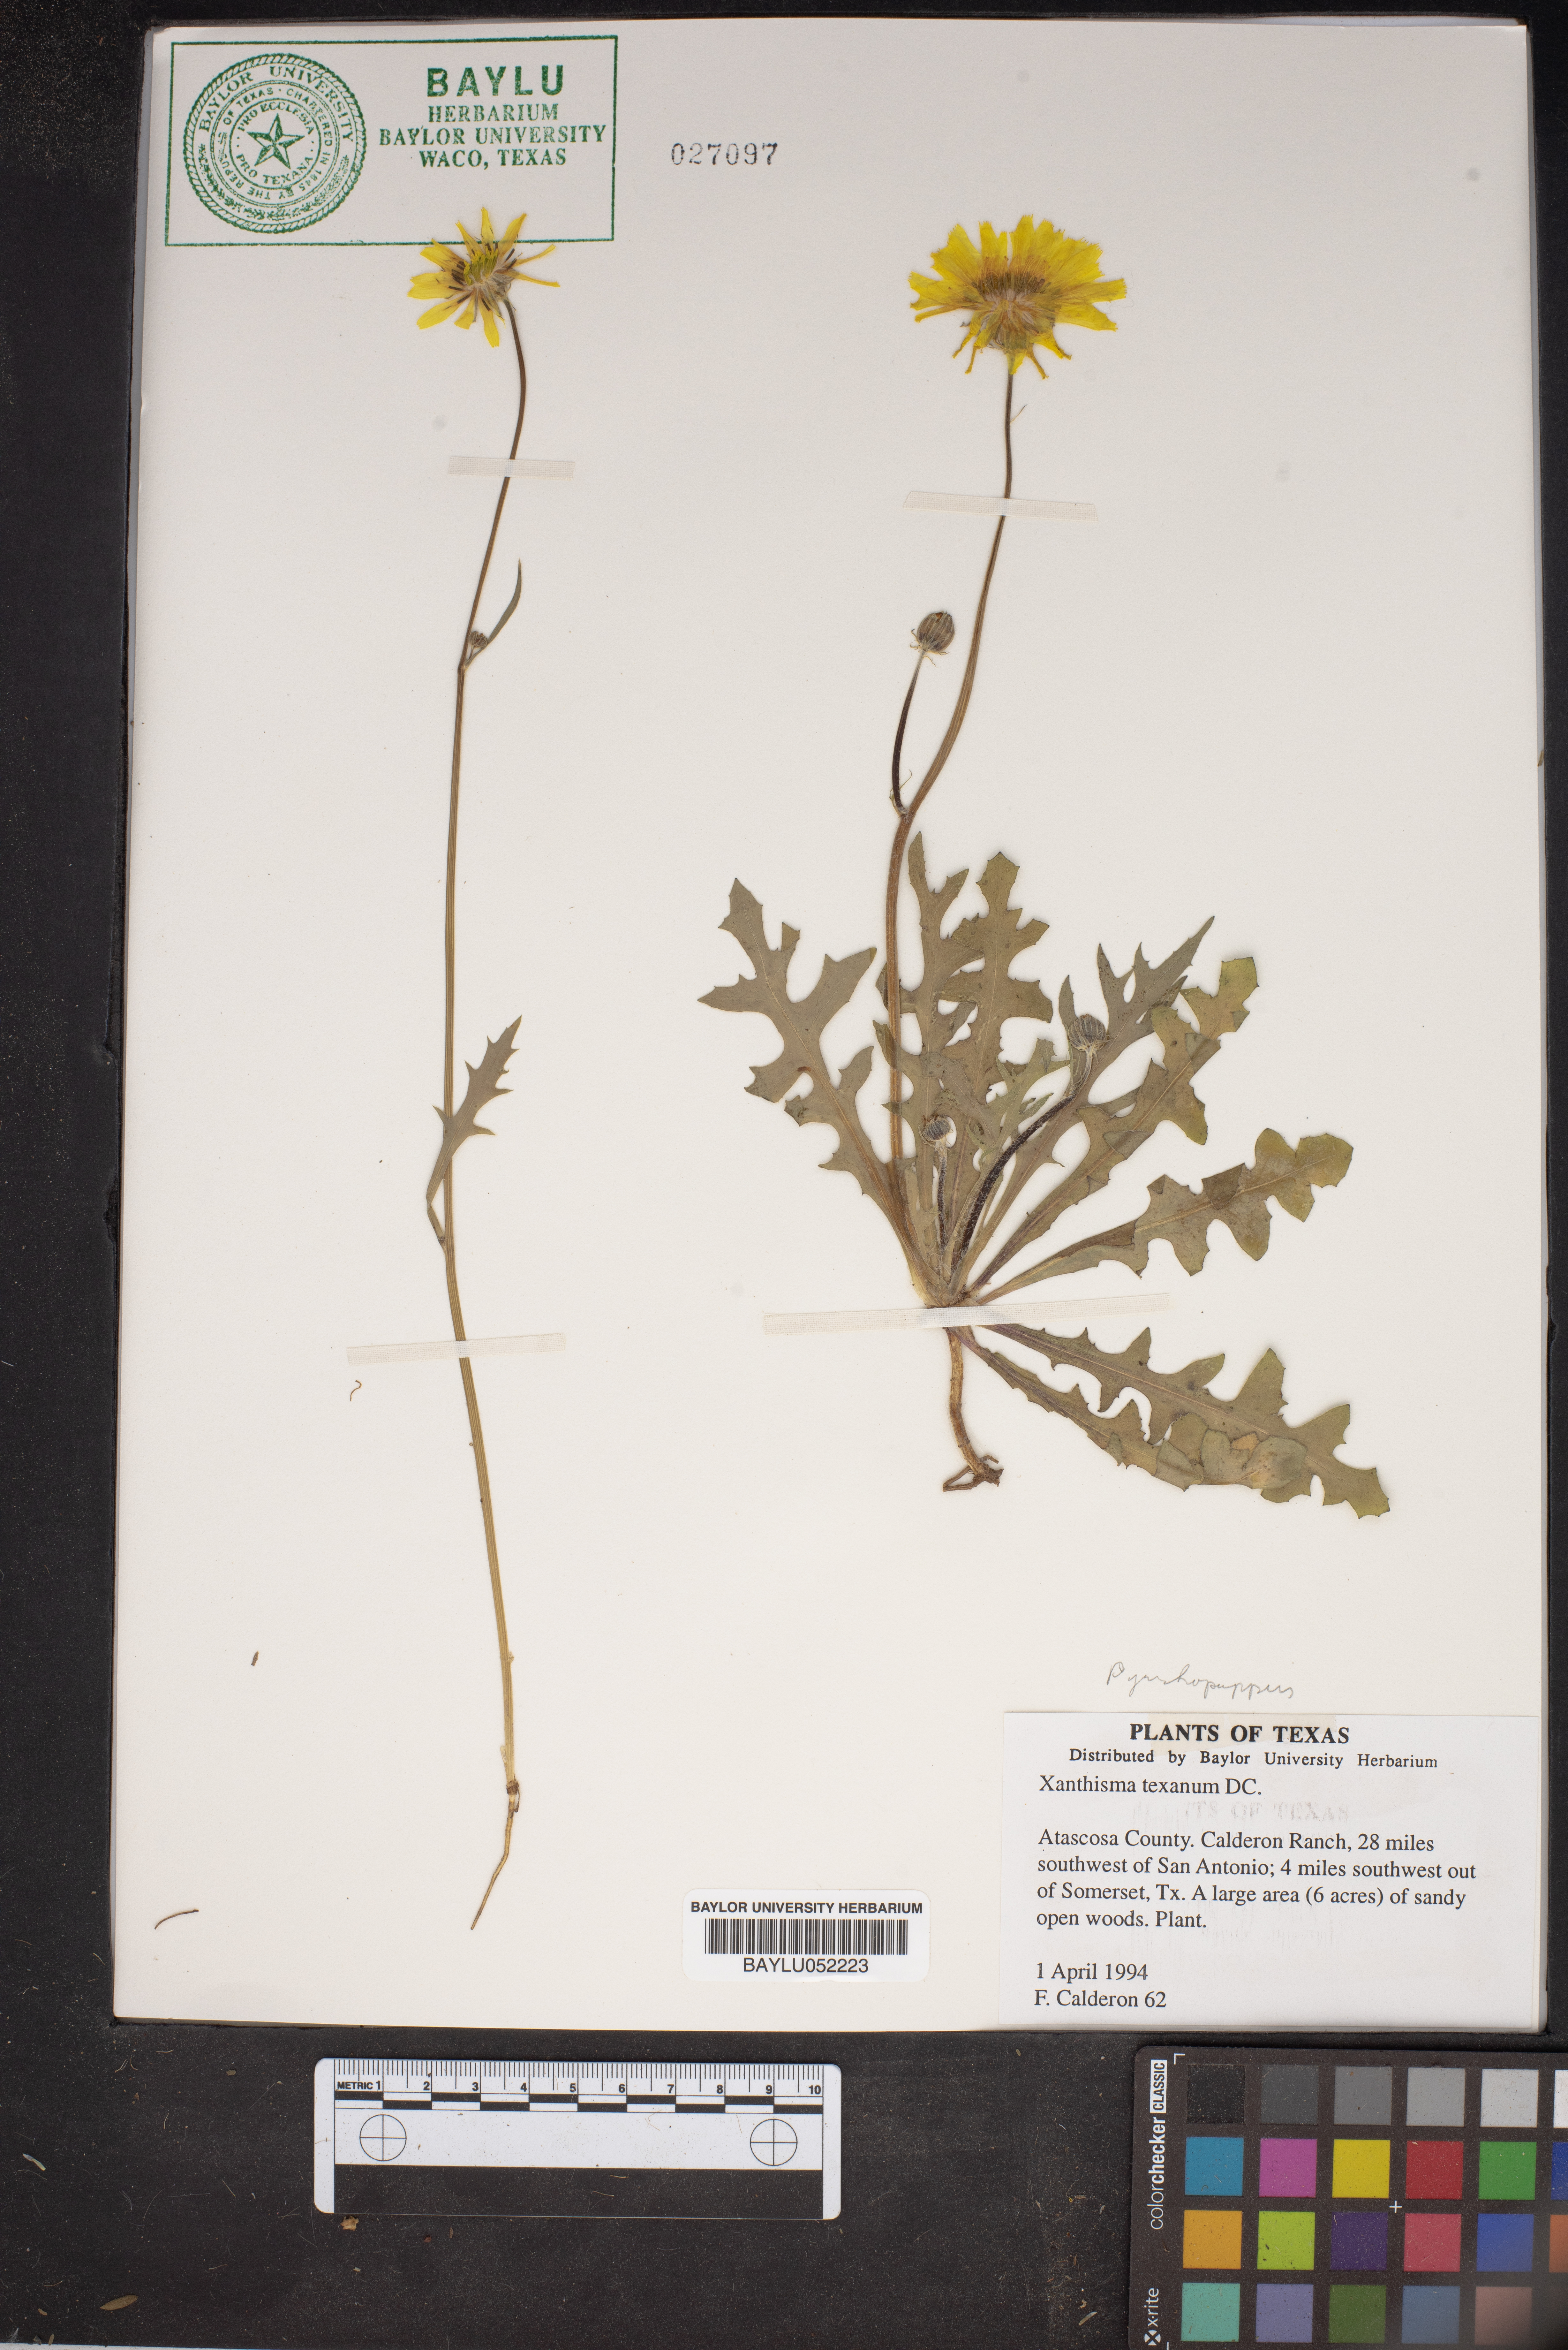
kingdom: Plantae
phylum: Tracheophyta
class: Magnoliopsida
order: Asterales
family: Asteraceae
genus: Xanthisma
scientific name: Xanthisma texanum
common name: Texas sleepy daisy
